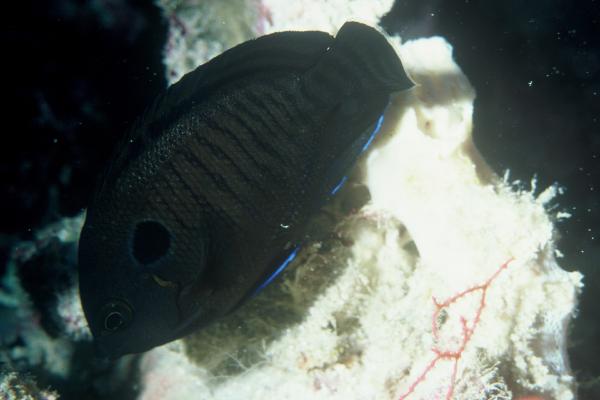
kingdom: Animalia
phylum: Chordata
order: Perciformes
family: Pomacanthidae
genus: Centropyge
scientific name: Centropyge multispinis
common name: Many-spined angelfish
